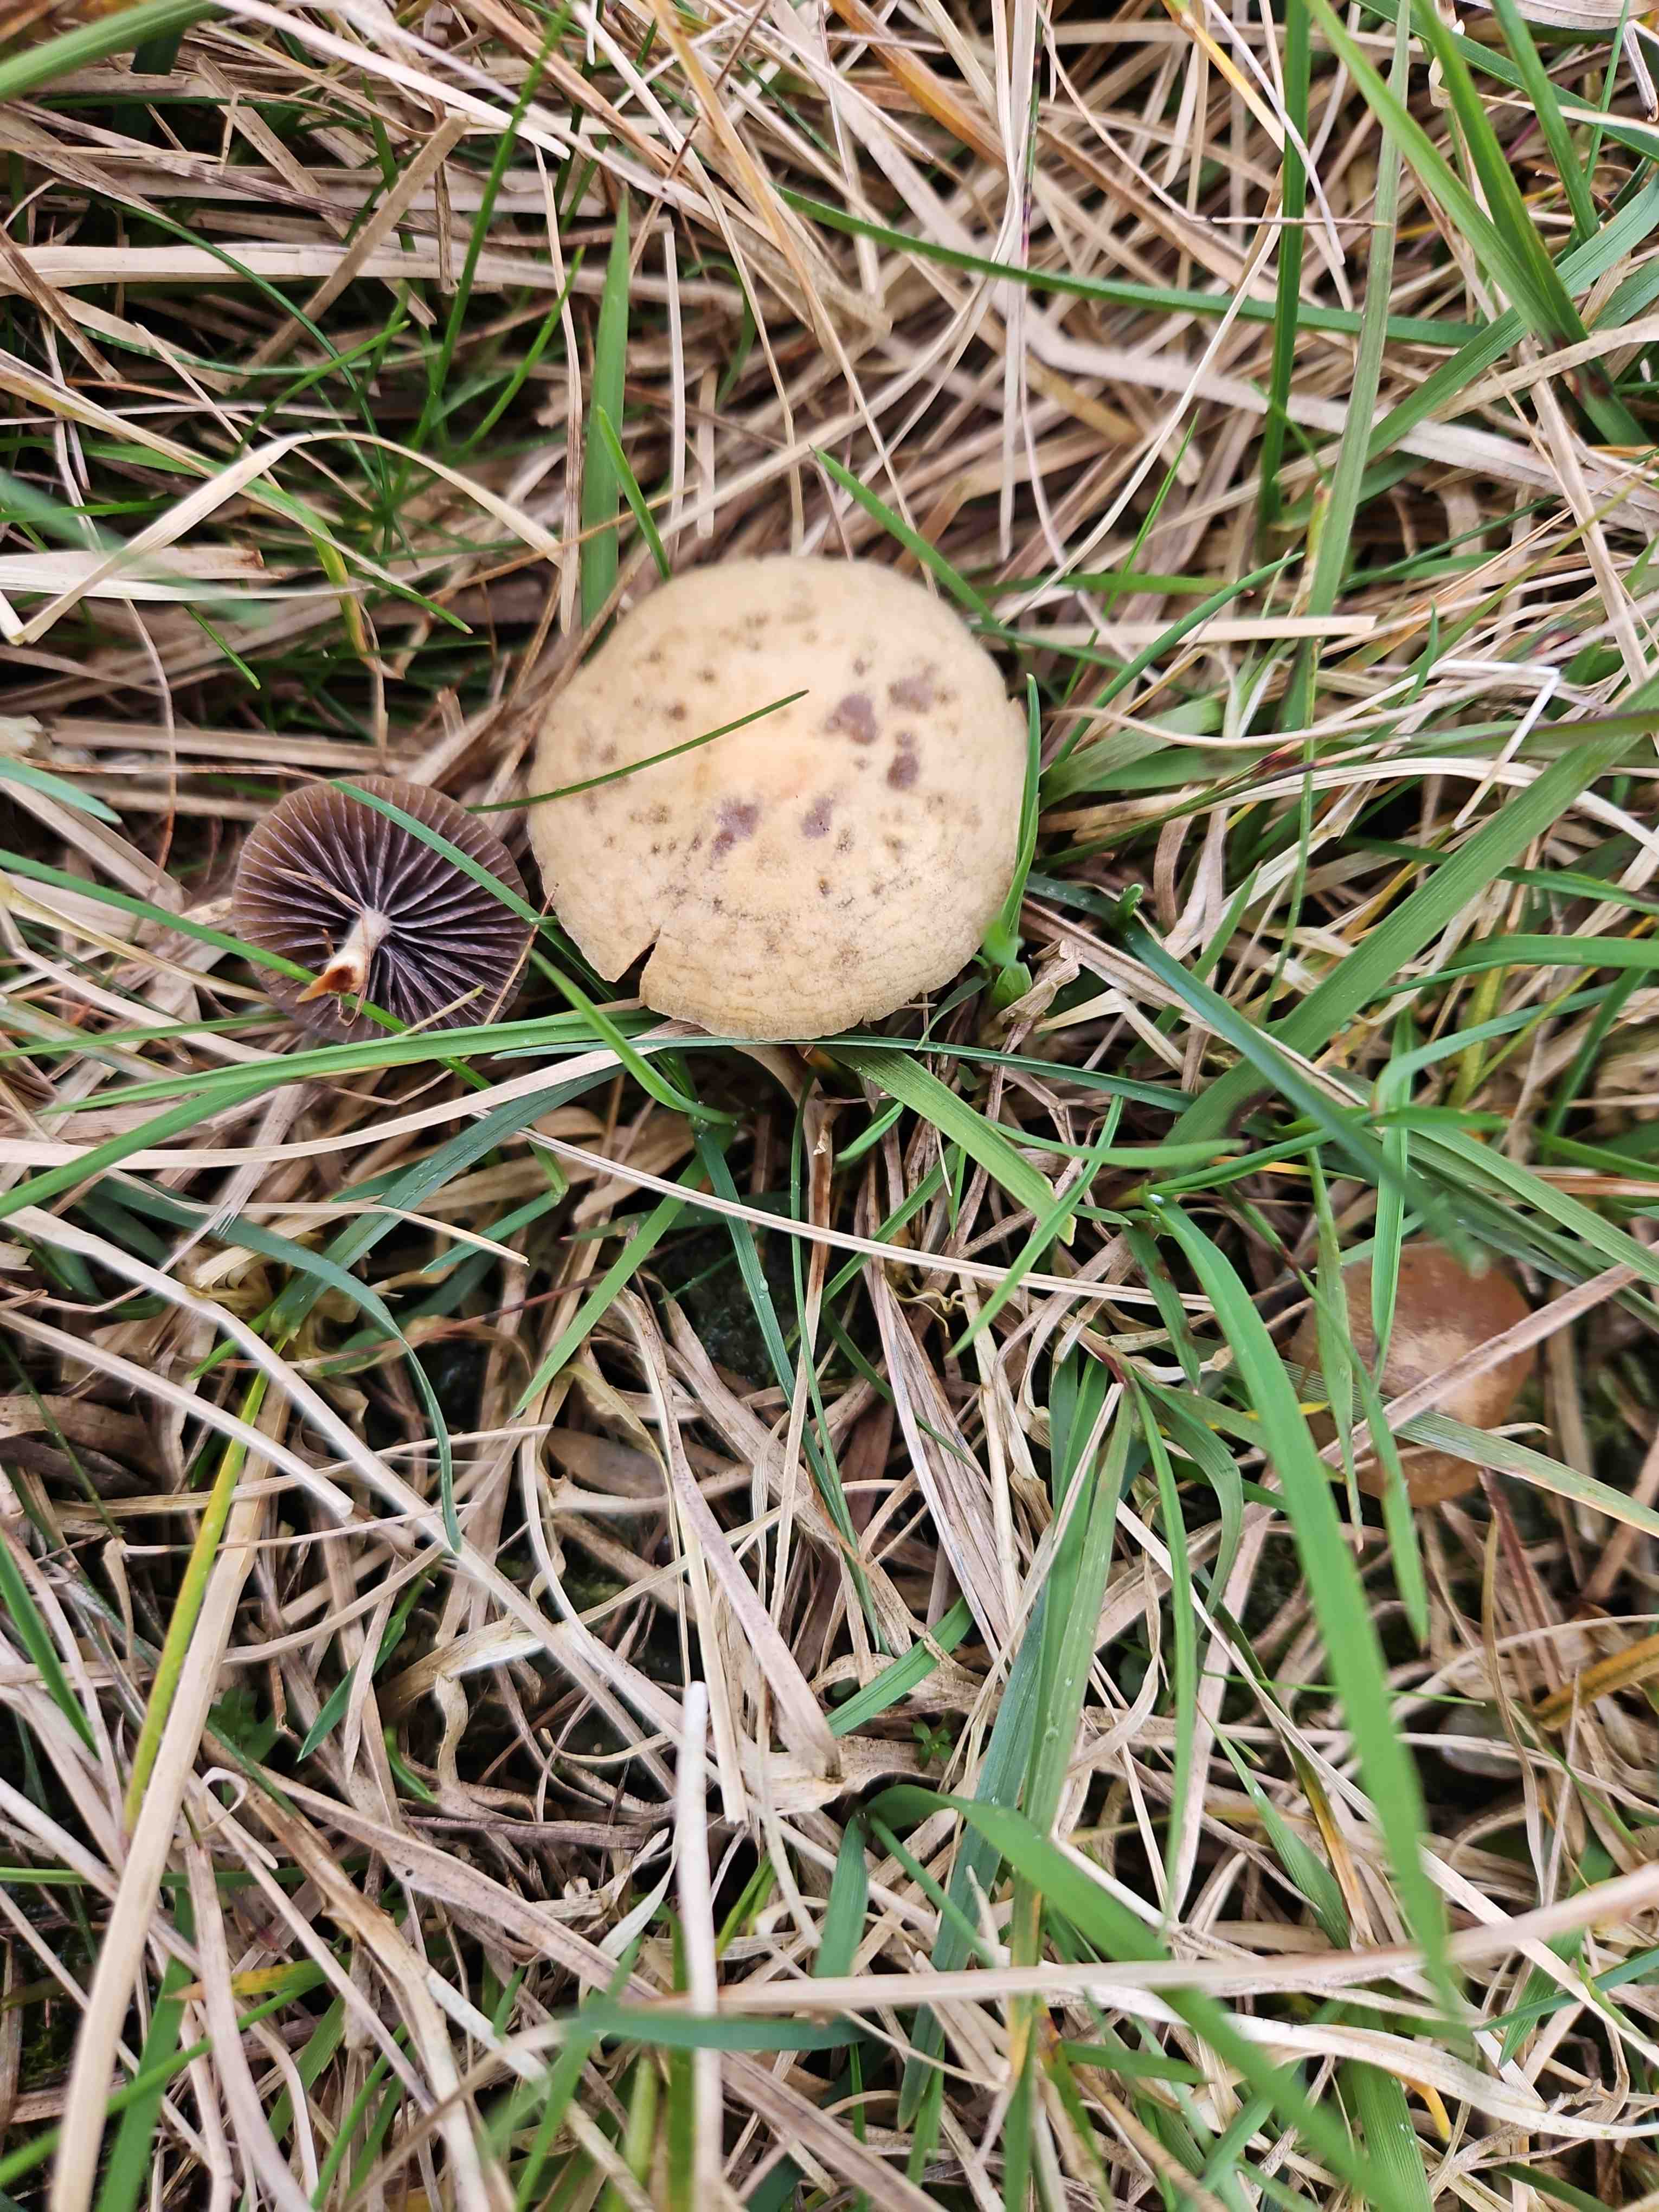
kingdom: Fungi
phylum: Basidiomycota
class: Agaricomycetes
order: Agaricales
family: Strophariaceae
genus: Protostropharia
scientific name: Protostropharia semiglobata
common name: halvkugleformet bredblad
